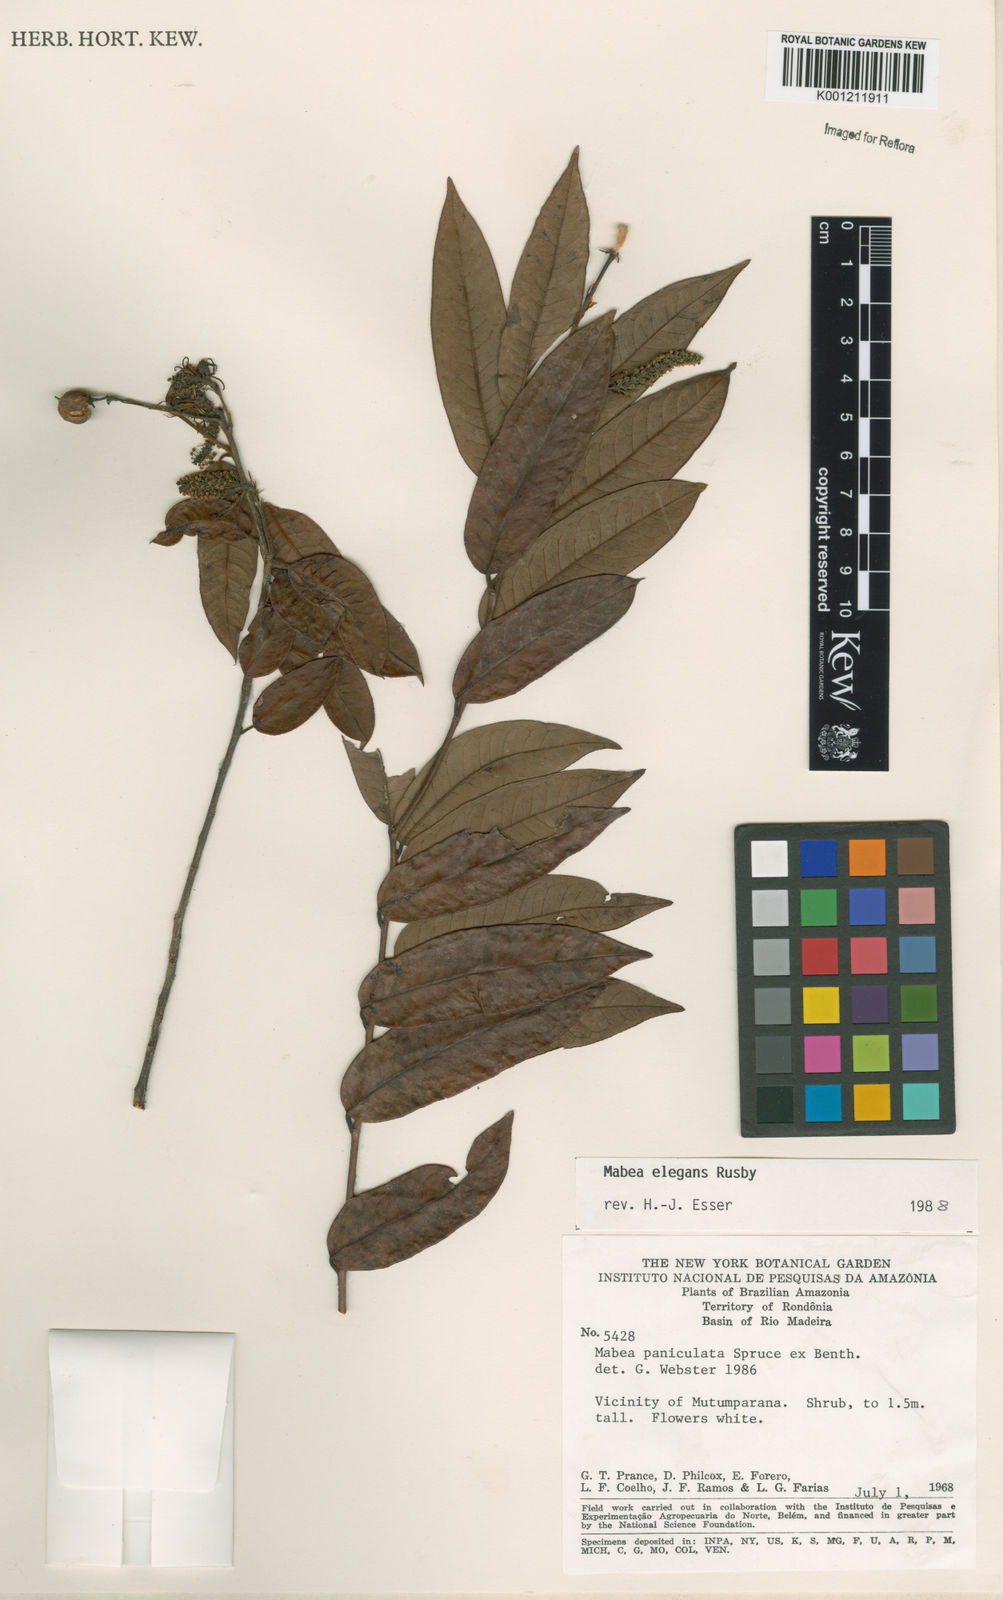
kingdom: Plantae
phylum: Tracheophyta
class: Magnoliopsida
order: Malpighiales
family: Euphorbiaceae
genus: Mabea
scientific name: Mabea paniculata
